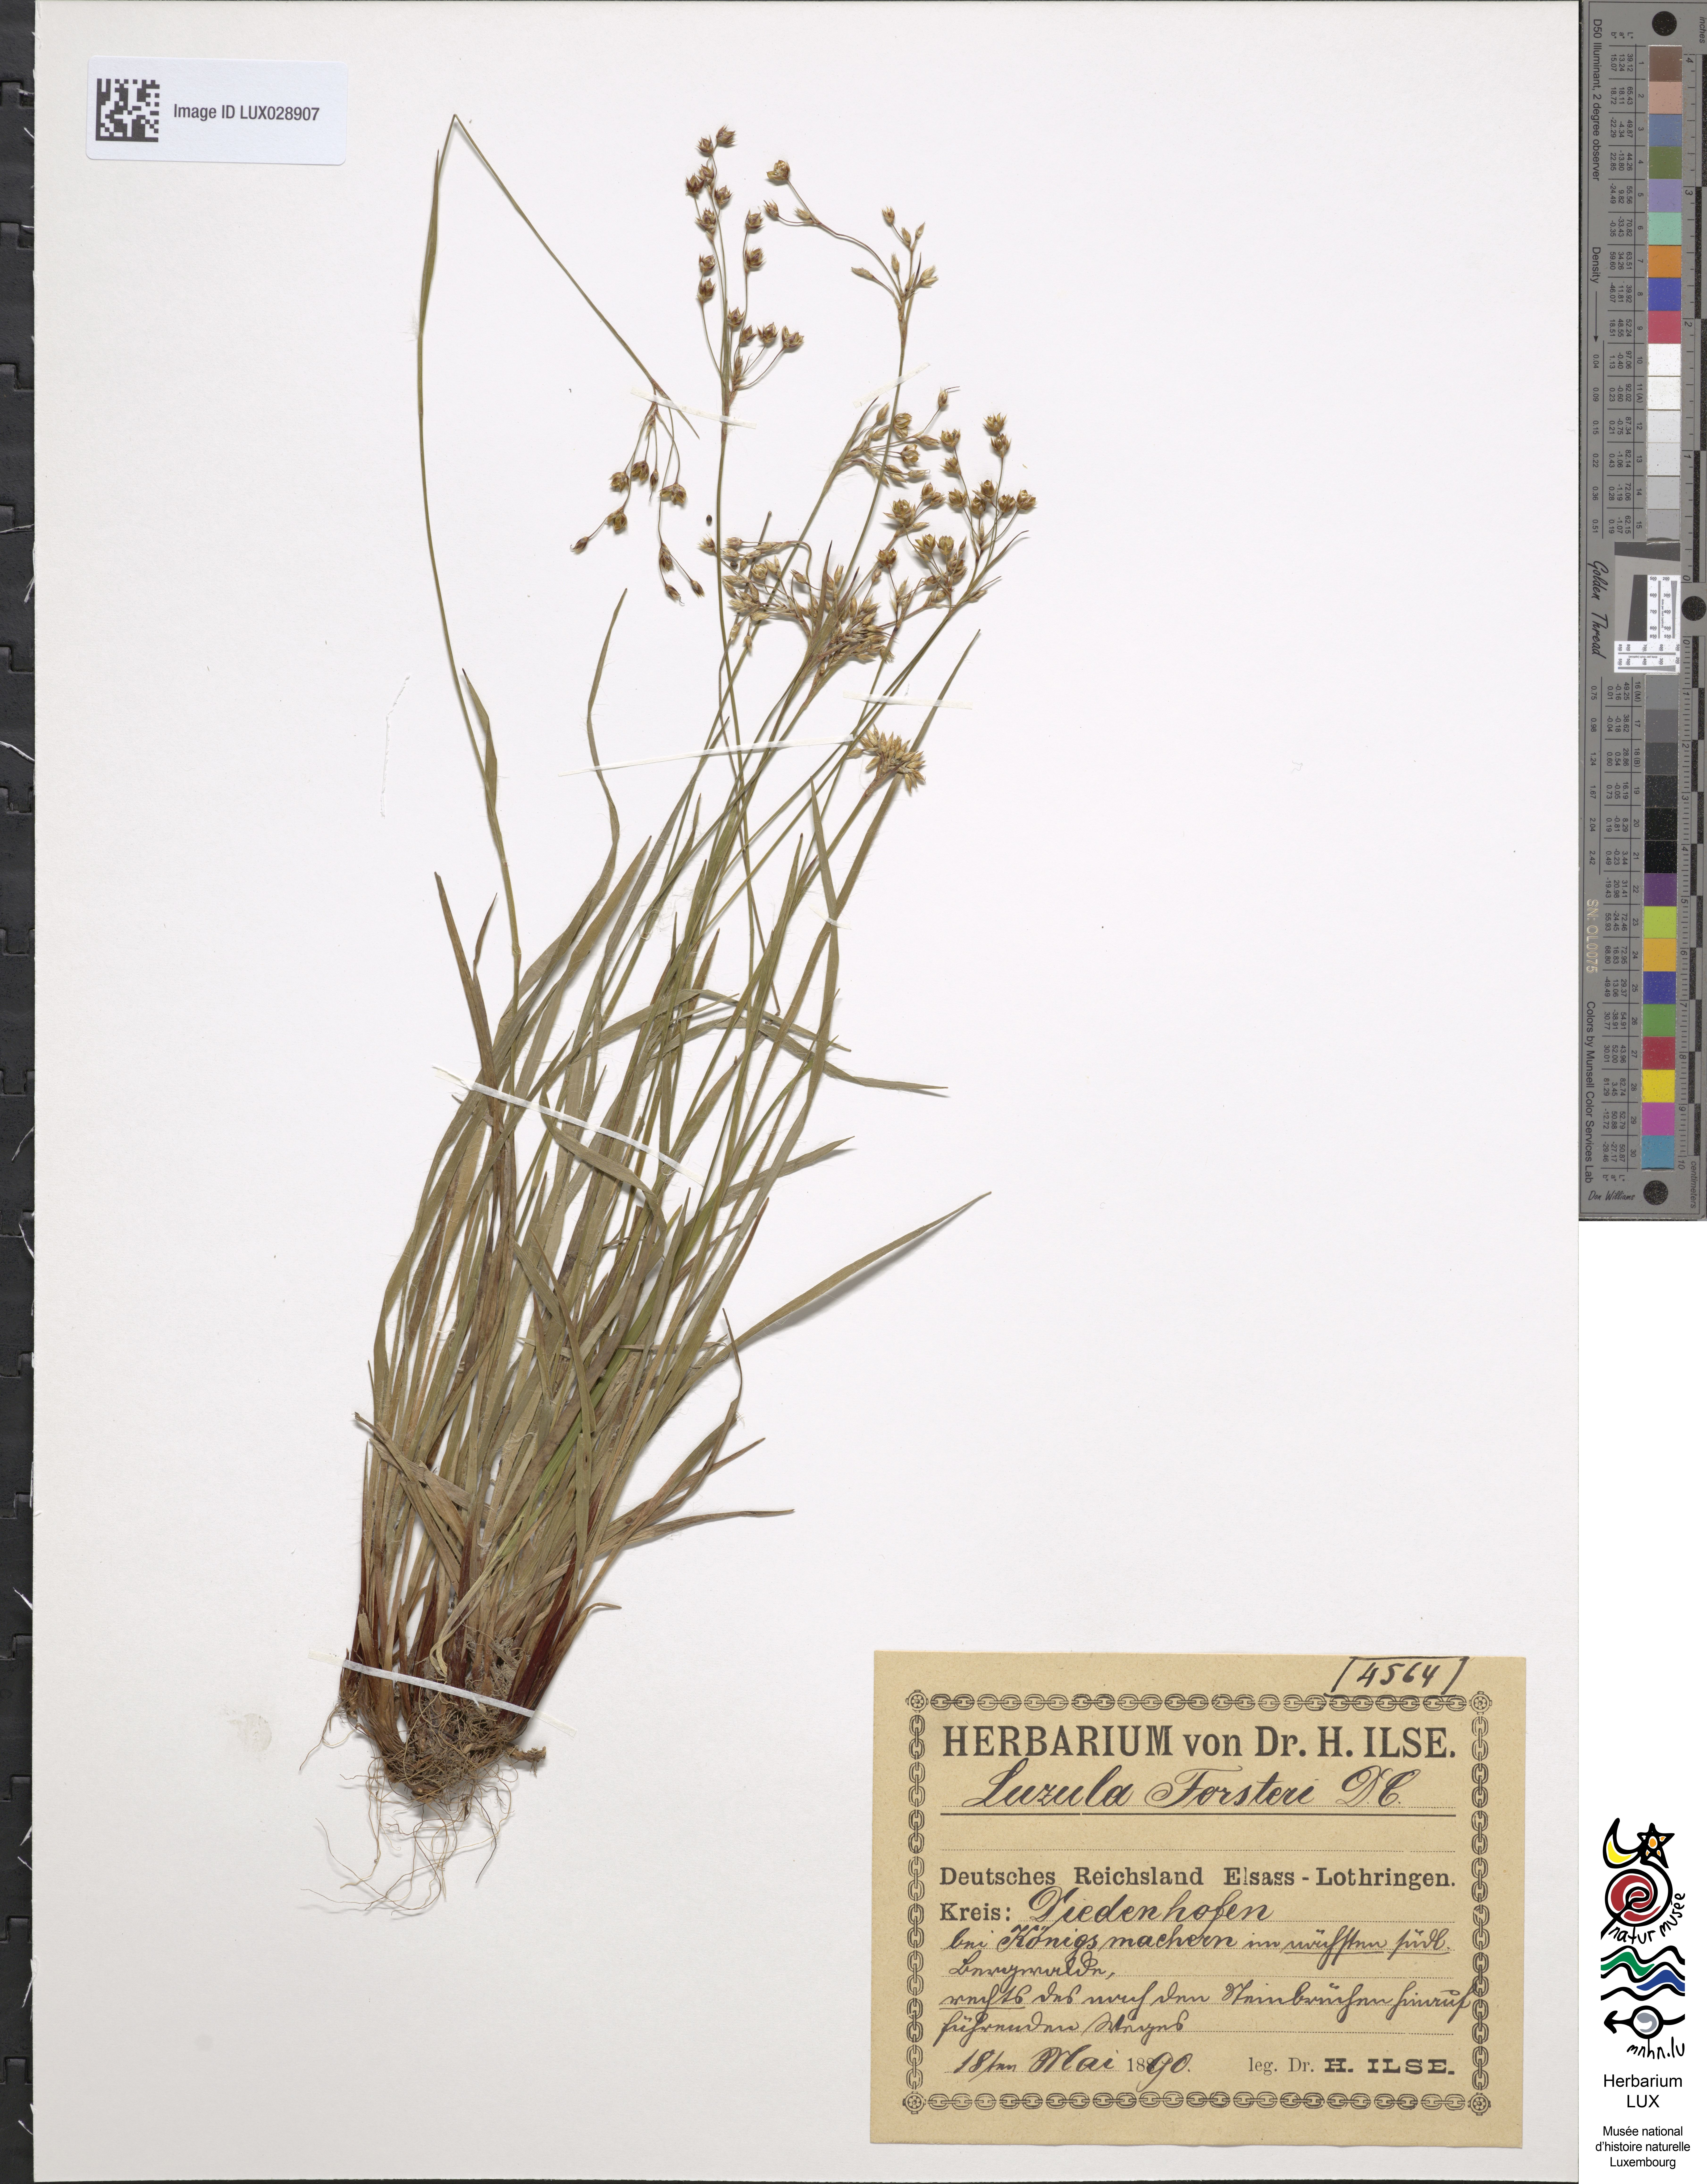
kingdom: Plantae
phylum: Tracheophyta
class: Liliopsida
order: Poales
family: Juncaceae
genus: Luzula
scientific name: Luzula forsteri
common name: Southern wood-rush
